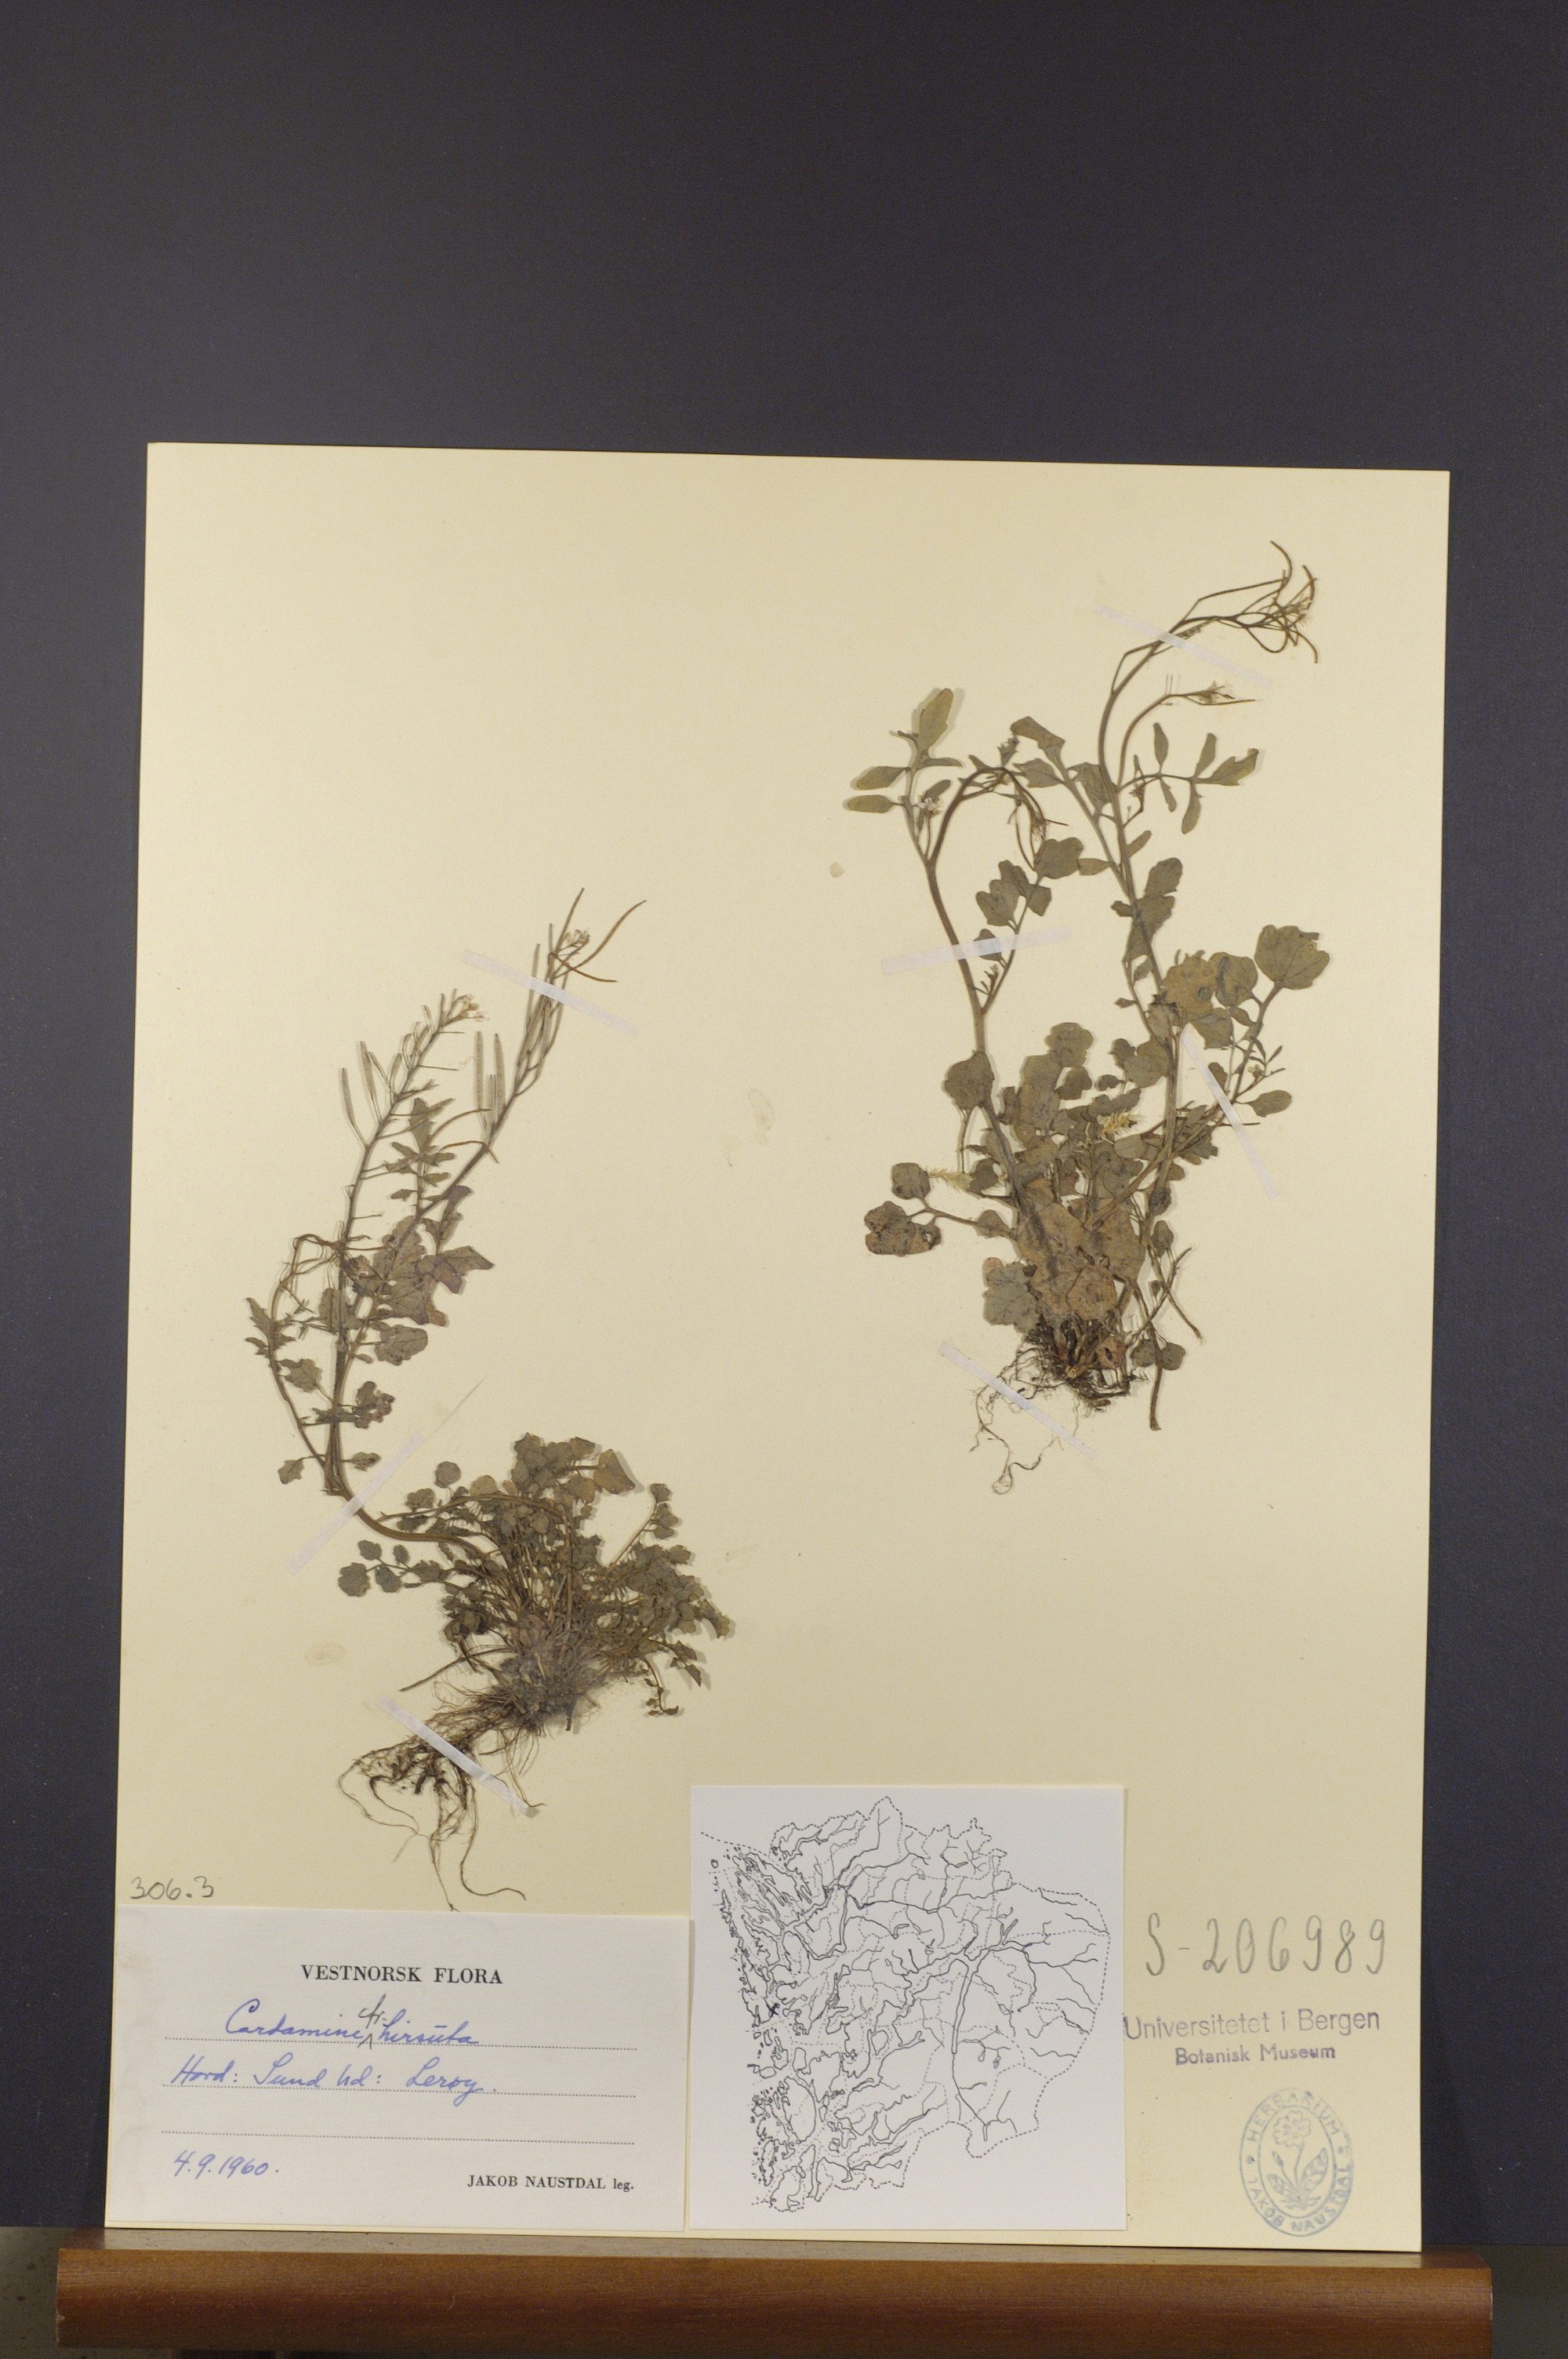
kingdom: Plantae
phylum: Tracheophyta
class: Magnoliopsida
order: Brassicales
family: Brassicaceae
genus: Cardamine
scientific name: Cardamine hirsuta
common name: Hairy bittercress
